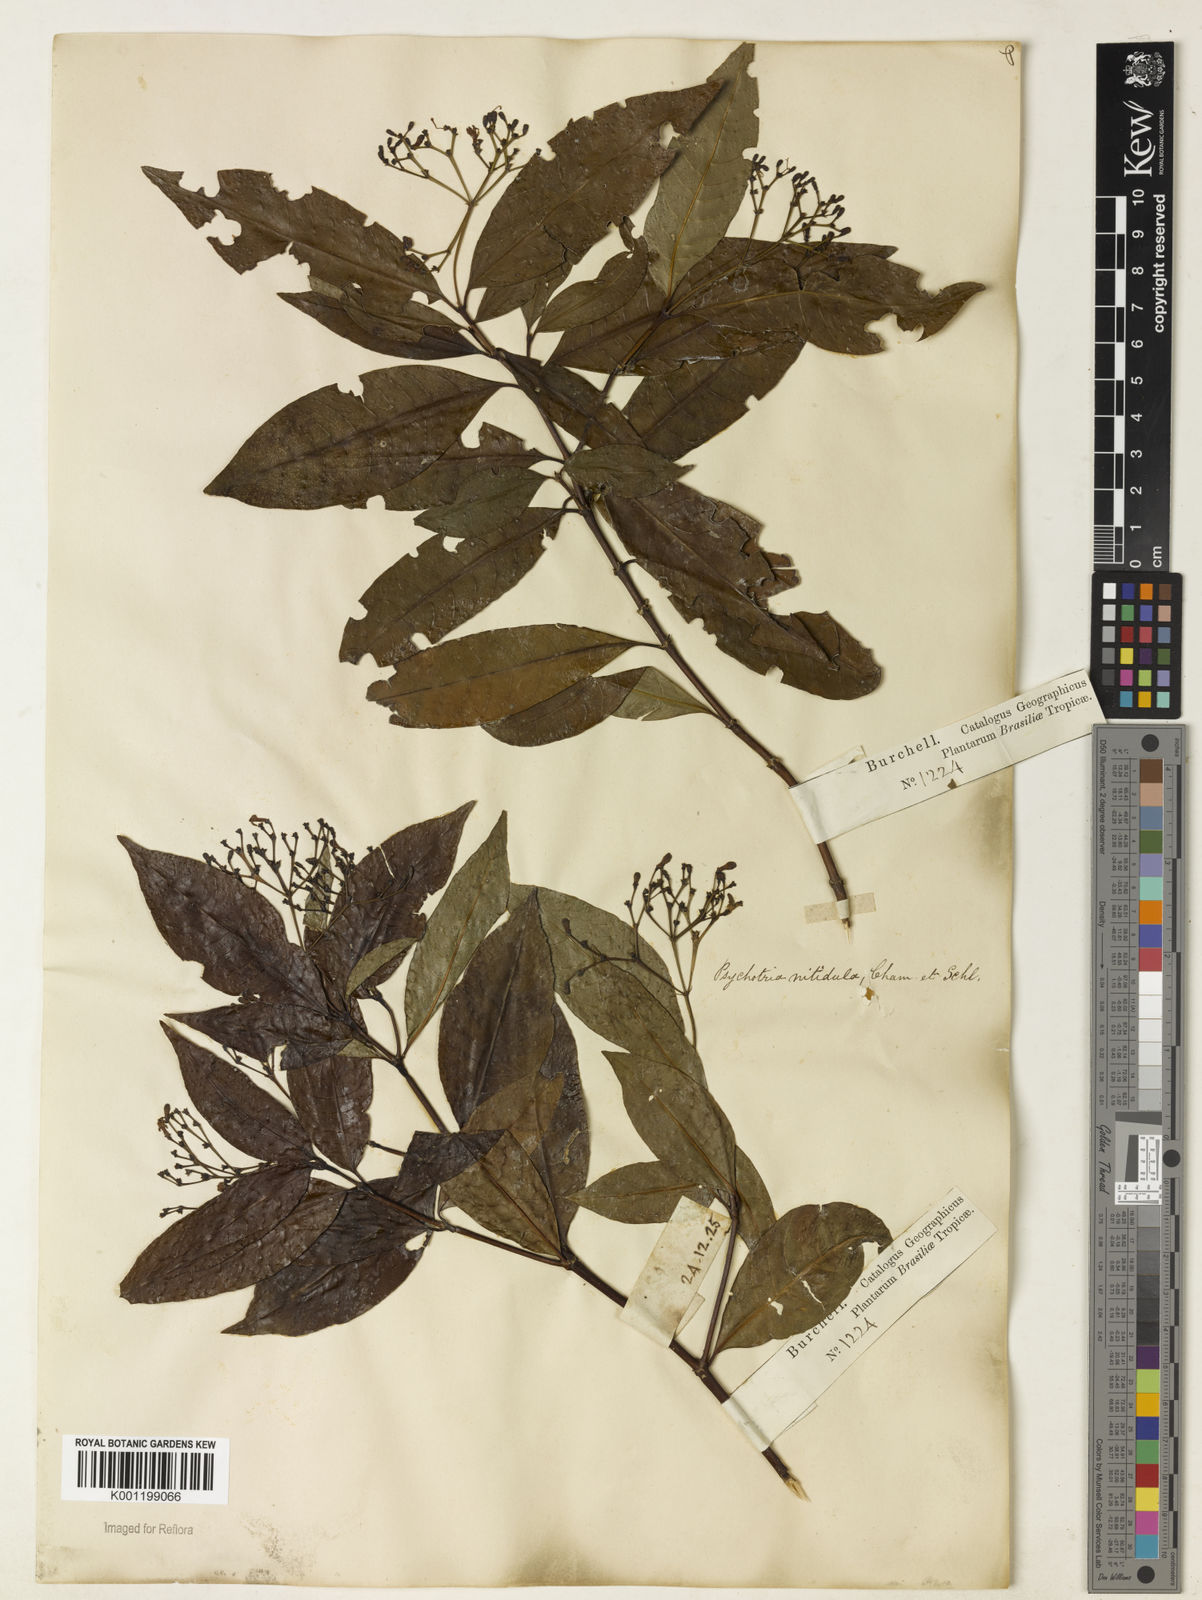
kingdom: Plantae
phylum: Tracheophyta
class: Magnoliopsida
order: Gentianales
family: Rubiaceae
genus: Psychotria
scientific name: Psychotria leiocarpa
